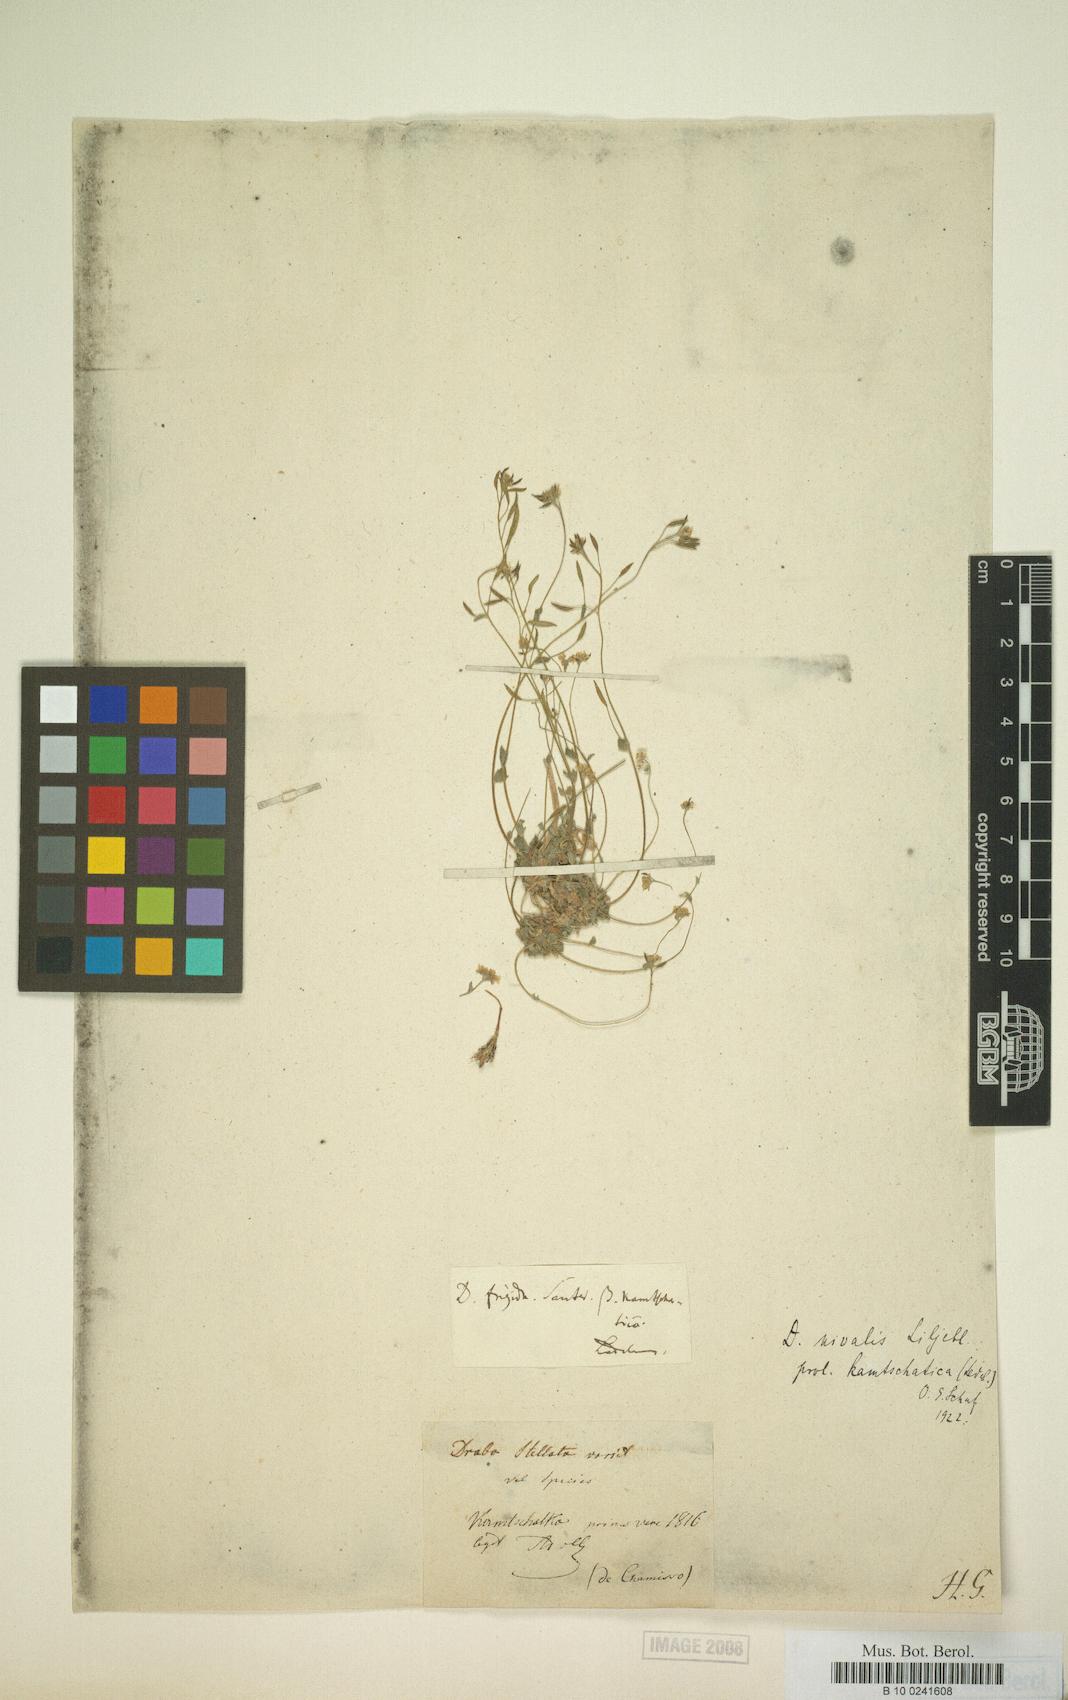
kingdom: Plantae
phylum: Tracheophyta
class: Magnoliopsida
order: Brassicales
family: Brassicaceae
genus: Draba
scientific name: Draba chamissonis
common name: Cape thompson draba
